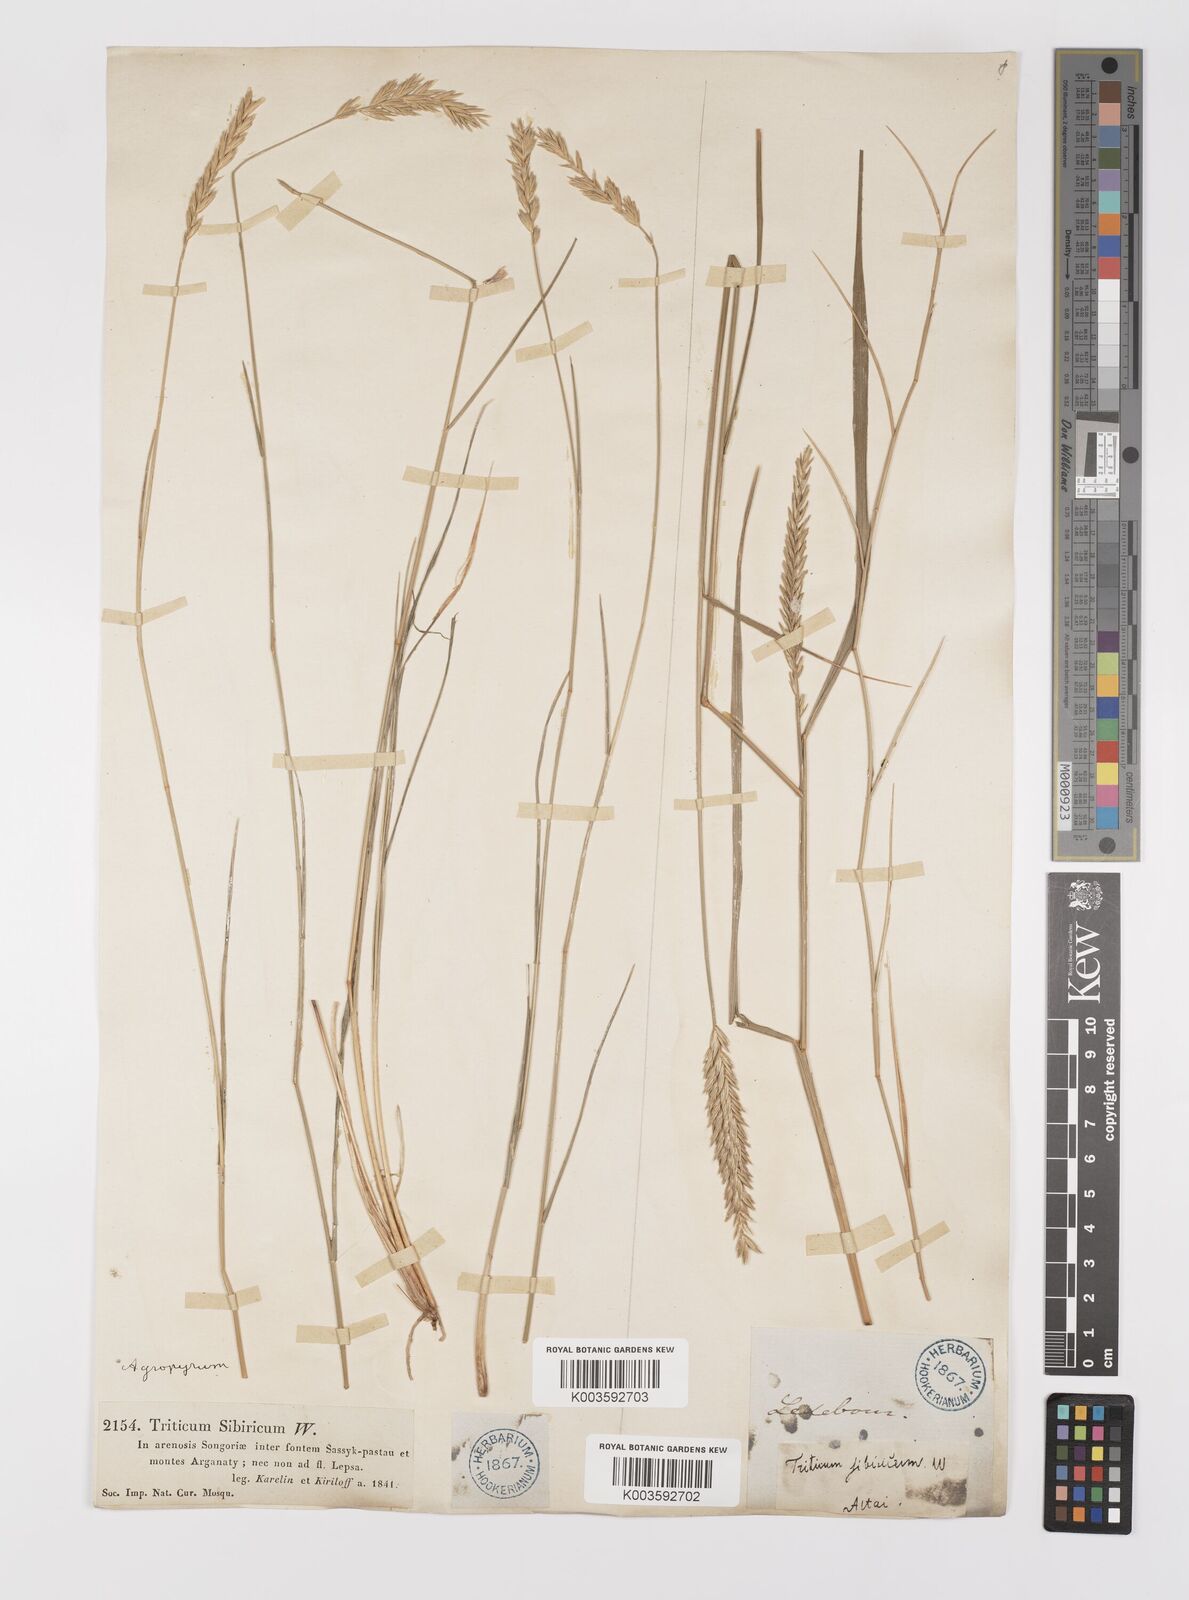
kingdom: Plantae
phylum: Tracheophyta
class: Liliopsida
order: Poales
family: Poaceae
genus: Agropyron
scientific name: Agropyron fragile
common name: Siberian wheatgrass
